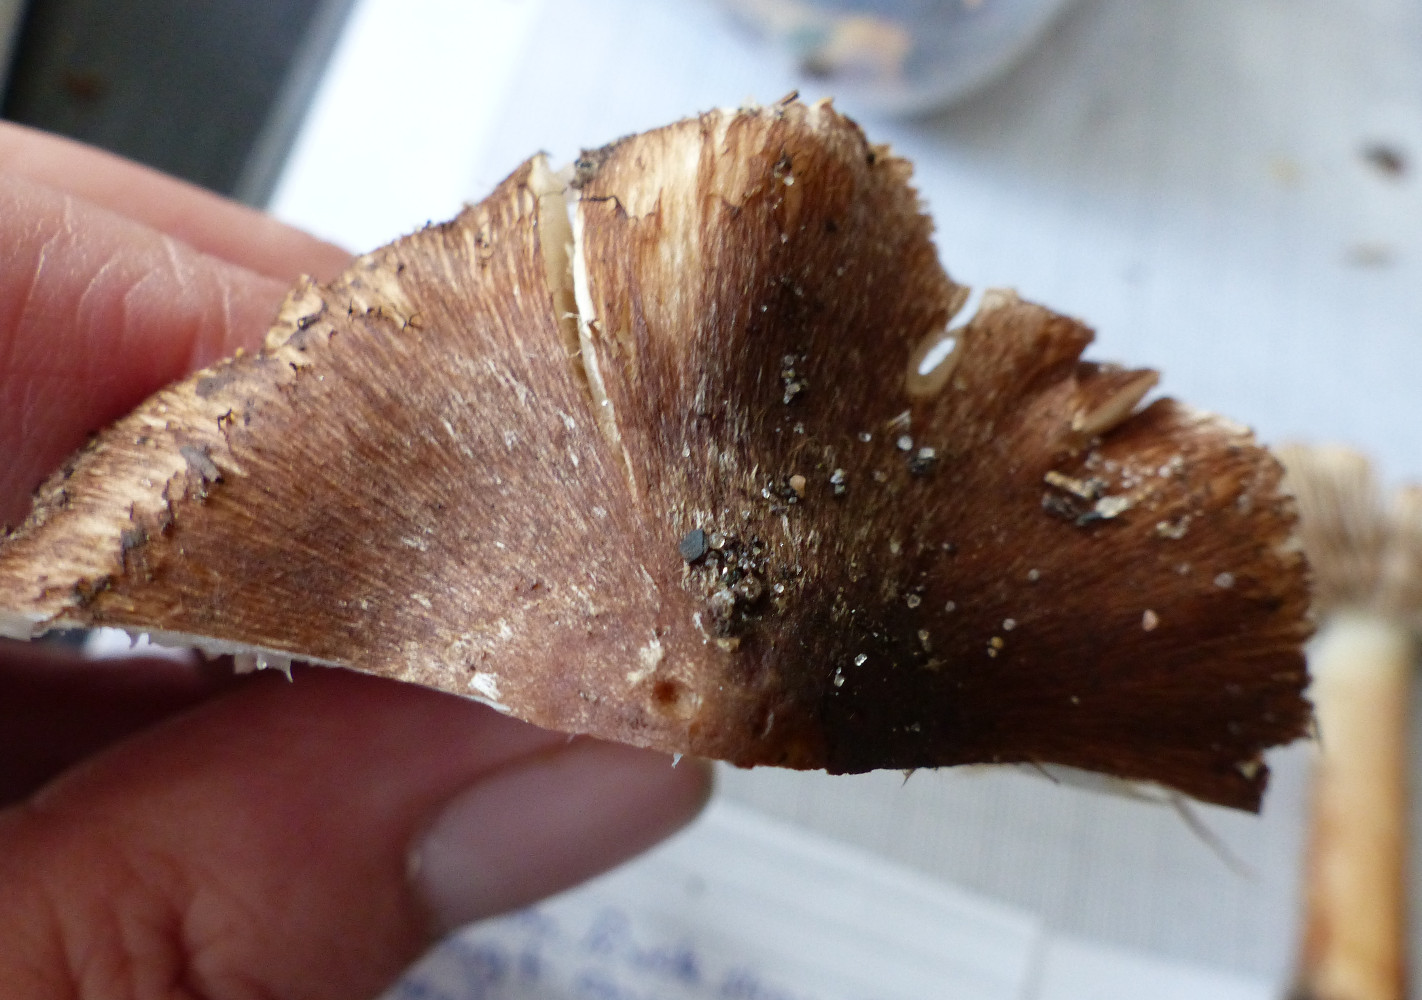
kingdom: Fungi
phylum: Basidiomycota
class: Agaricomycetes
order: Agaricales
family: Inocybaceae
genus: Inosperma
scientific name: Inosperma
